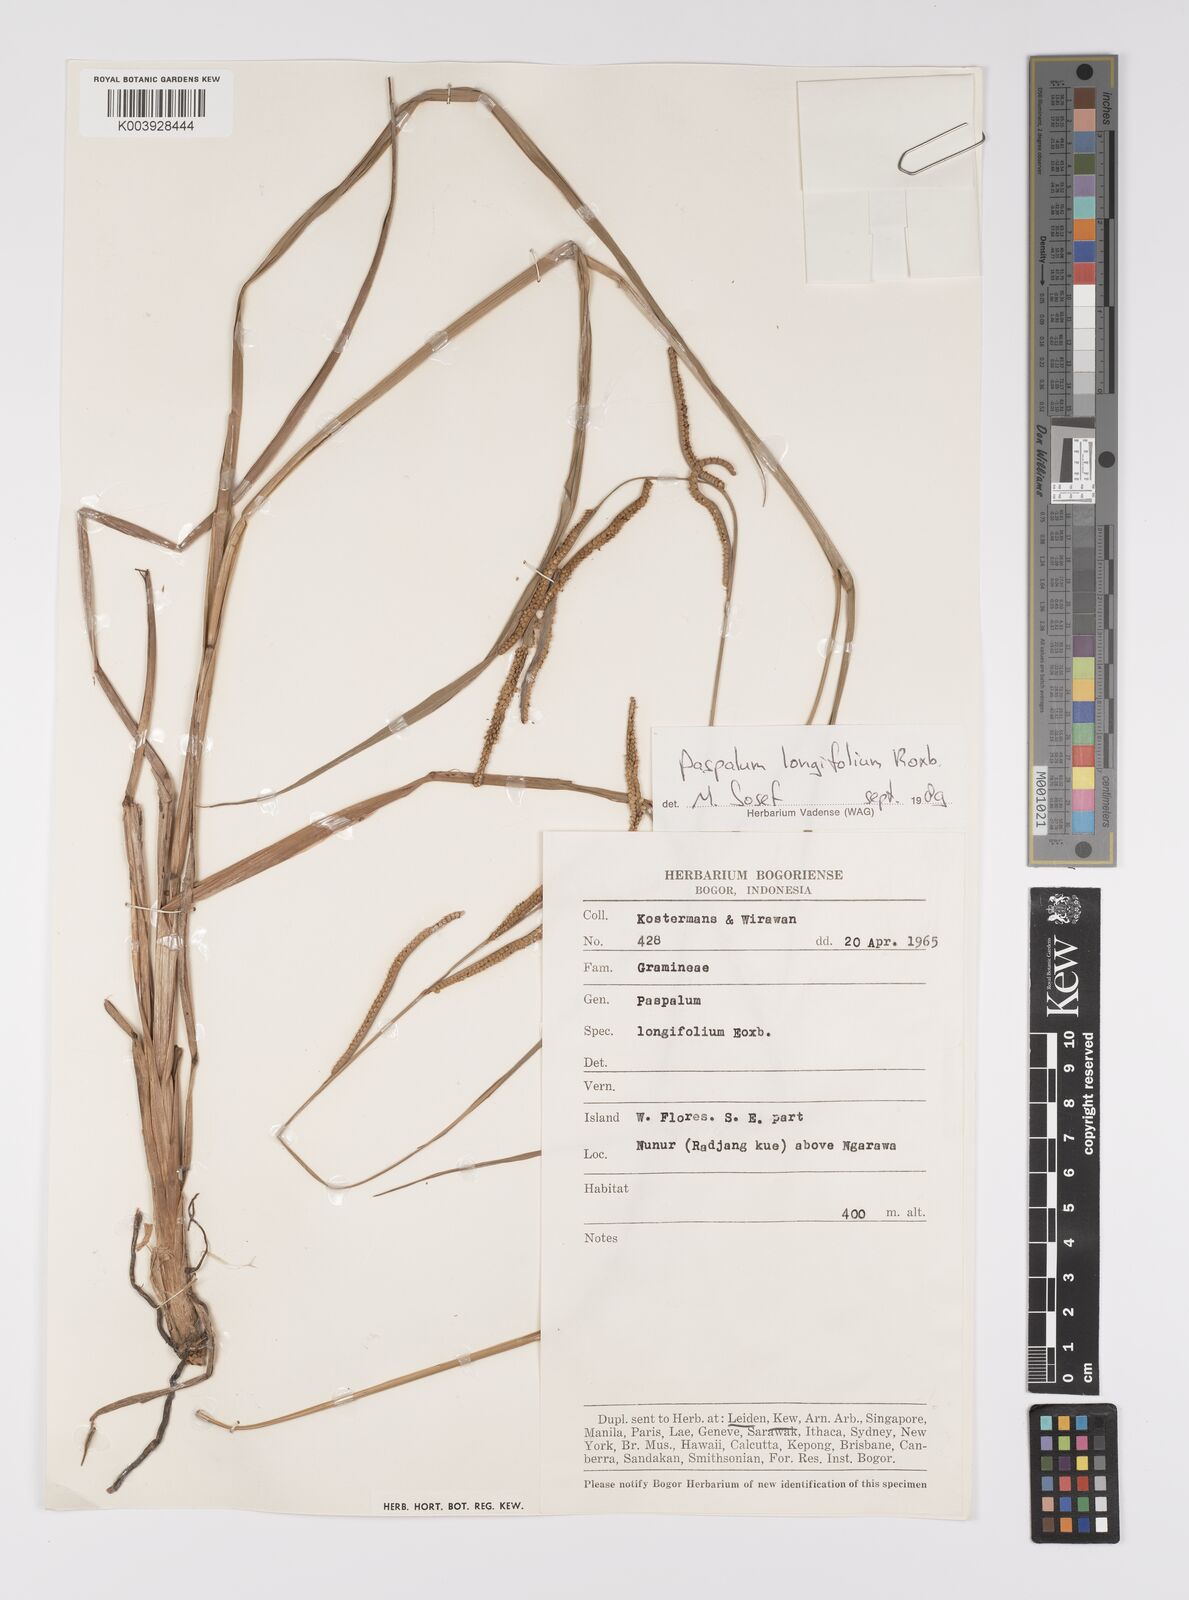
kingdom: Plantae
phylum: Tracheophyta
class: Liliopsida
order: Poales
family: Poaceae
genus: Paspalum
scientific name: Paspalum sumatrense
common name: Long-leaved paspalum
